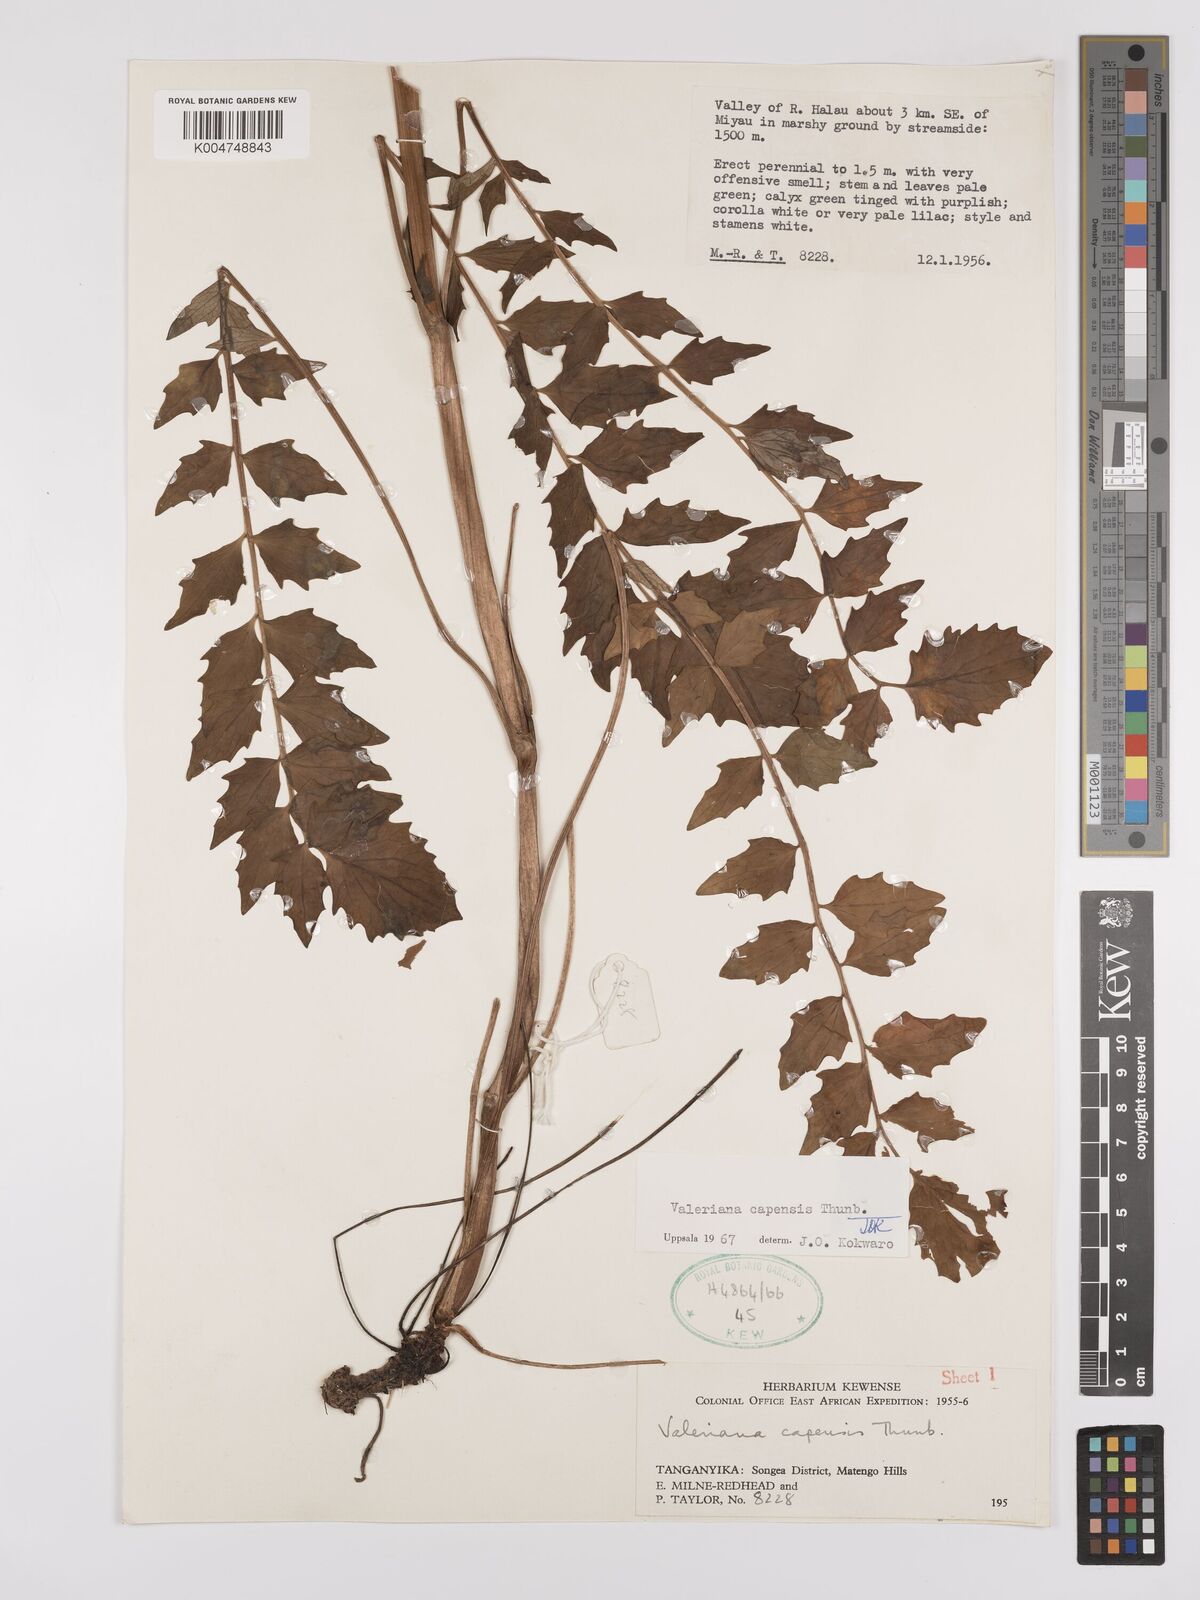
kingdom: Plantae
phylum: Tracheophyta
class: Magnoliopsida
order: Dipsacales
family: Caprifoliaceae
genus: Valeriana
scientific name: Valeriana capensis
